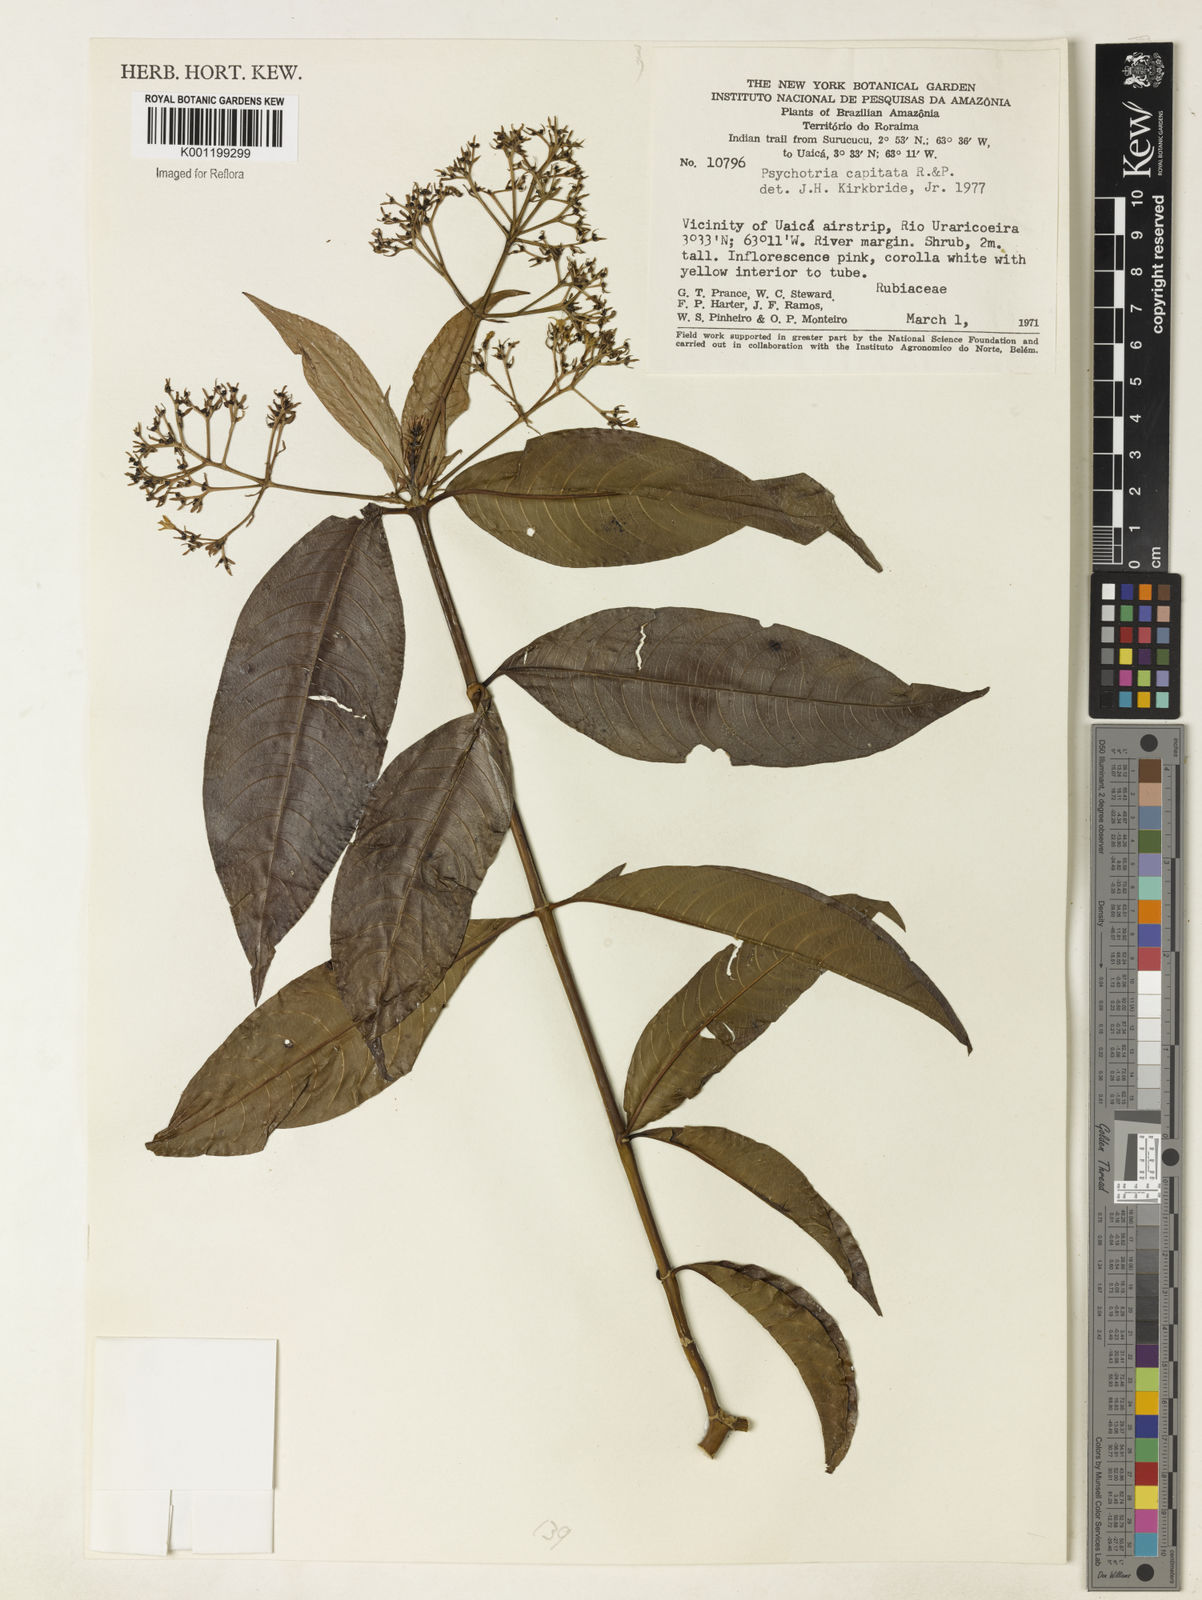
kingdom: Plantae
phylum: Tracheophyta
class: Magnoliopsida
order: Gentianales
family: Rubiaceae
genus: Palicourea
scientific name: Palicourea violacea
